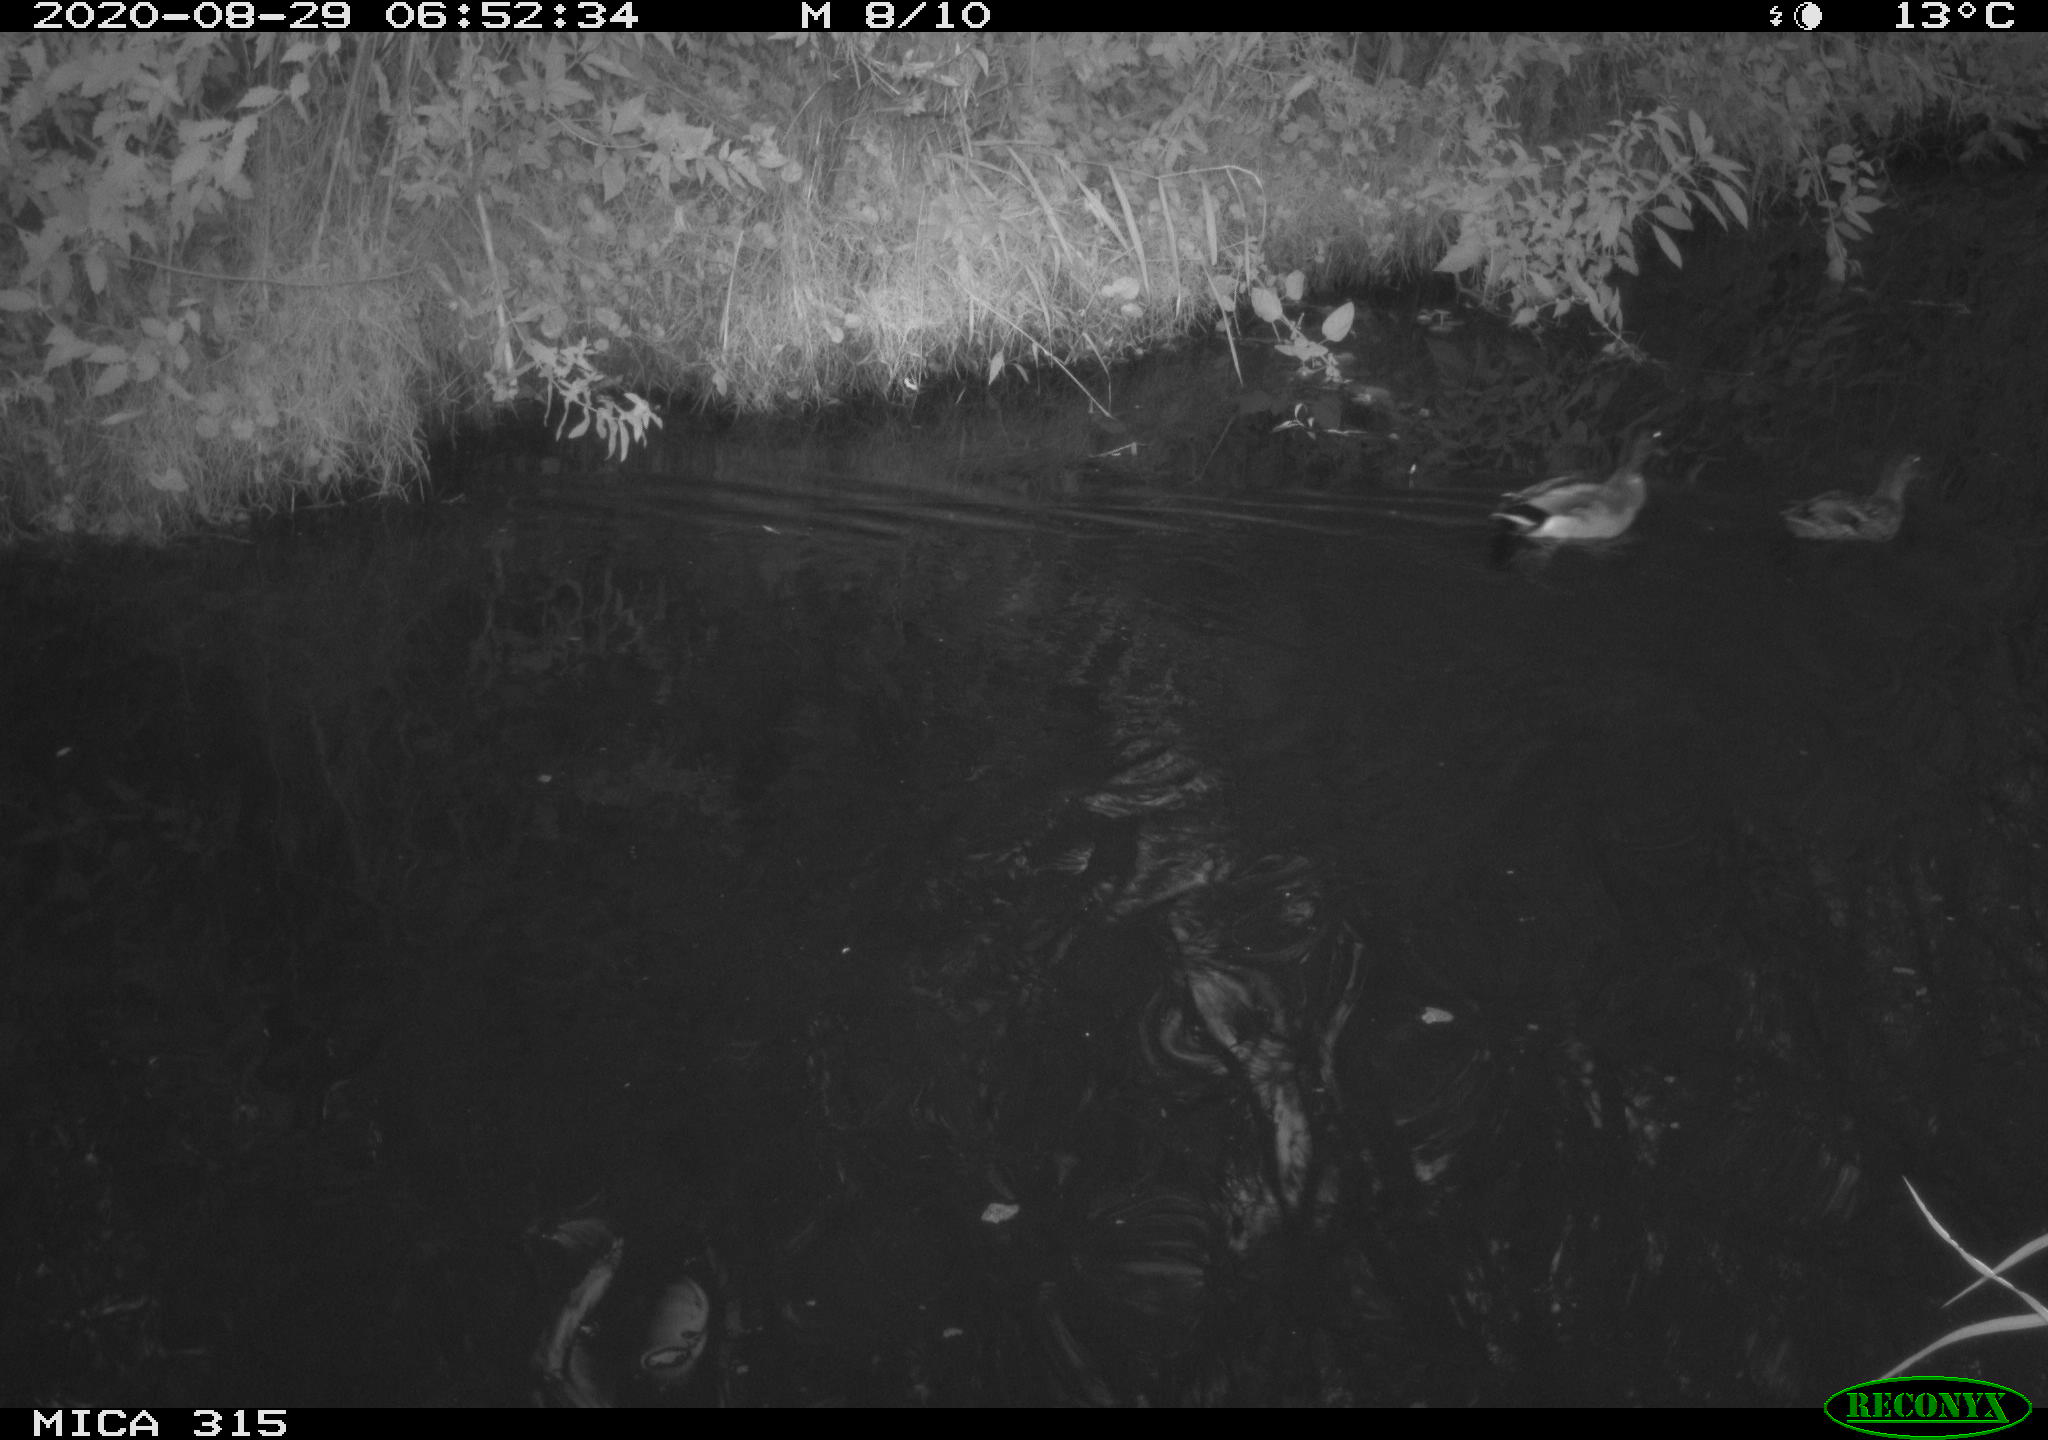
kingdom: Animalia
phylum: Chordata
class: Aves
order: Anseriformes
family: Anatidae
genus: Anas
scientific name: Anas platyrhynchos
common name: Mallard
